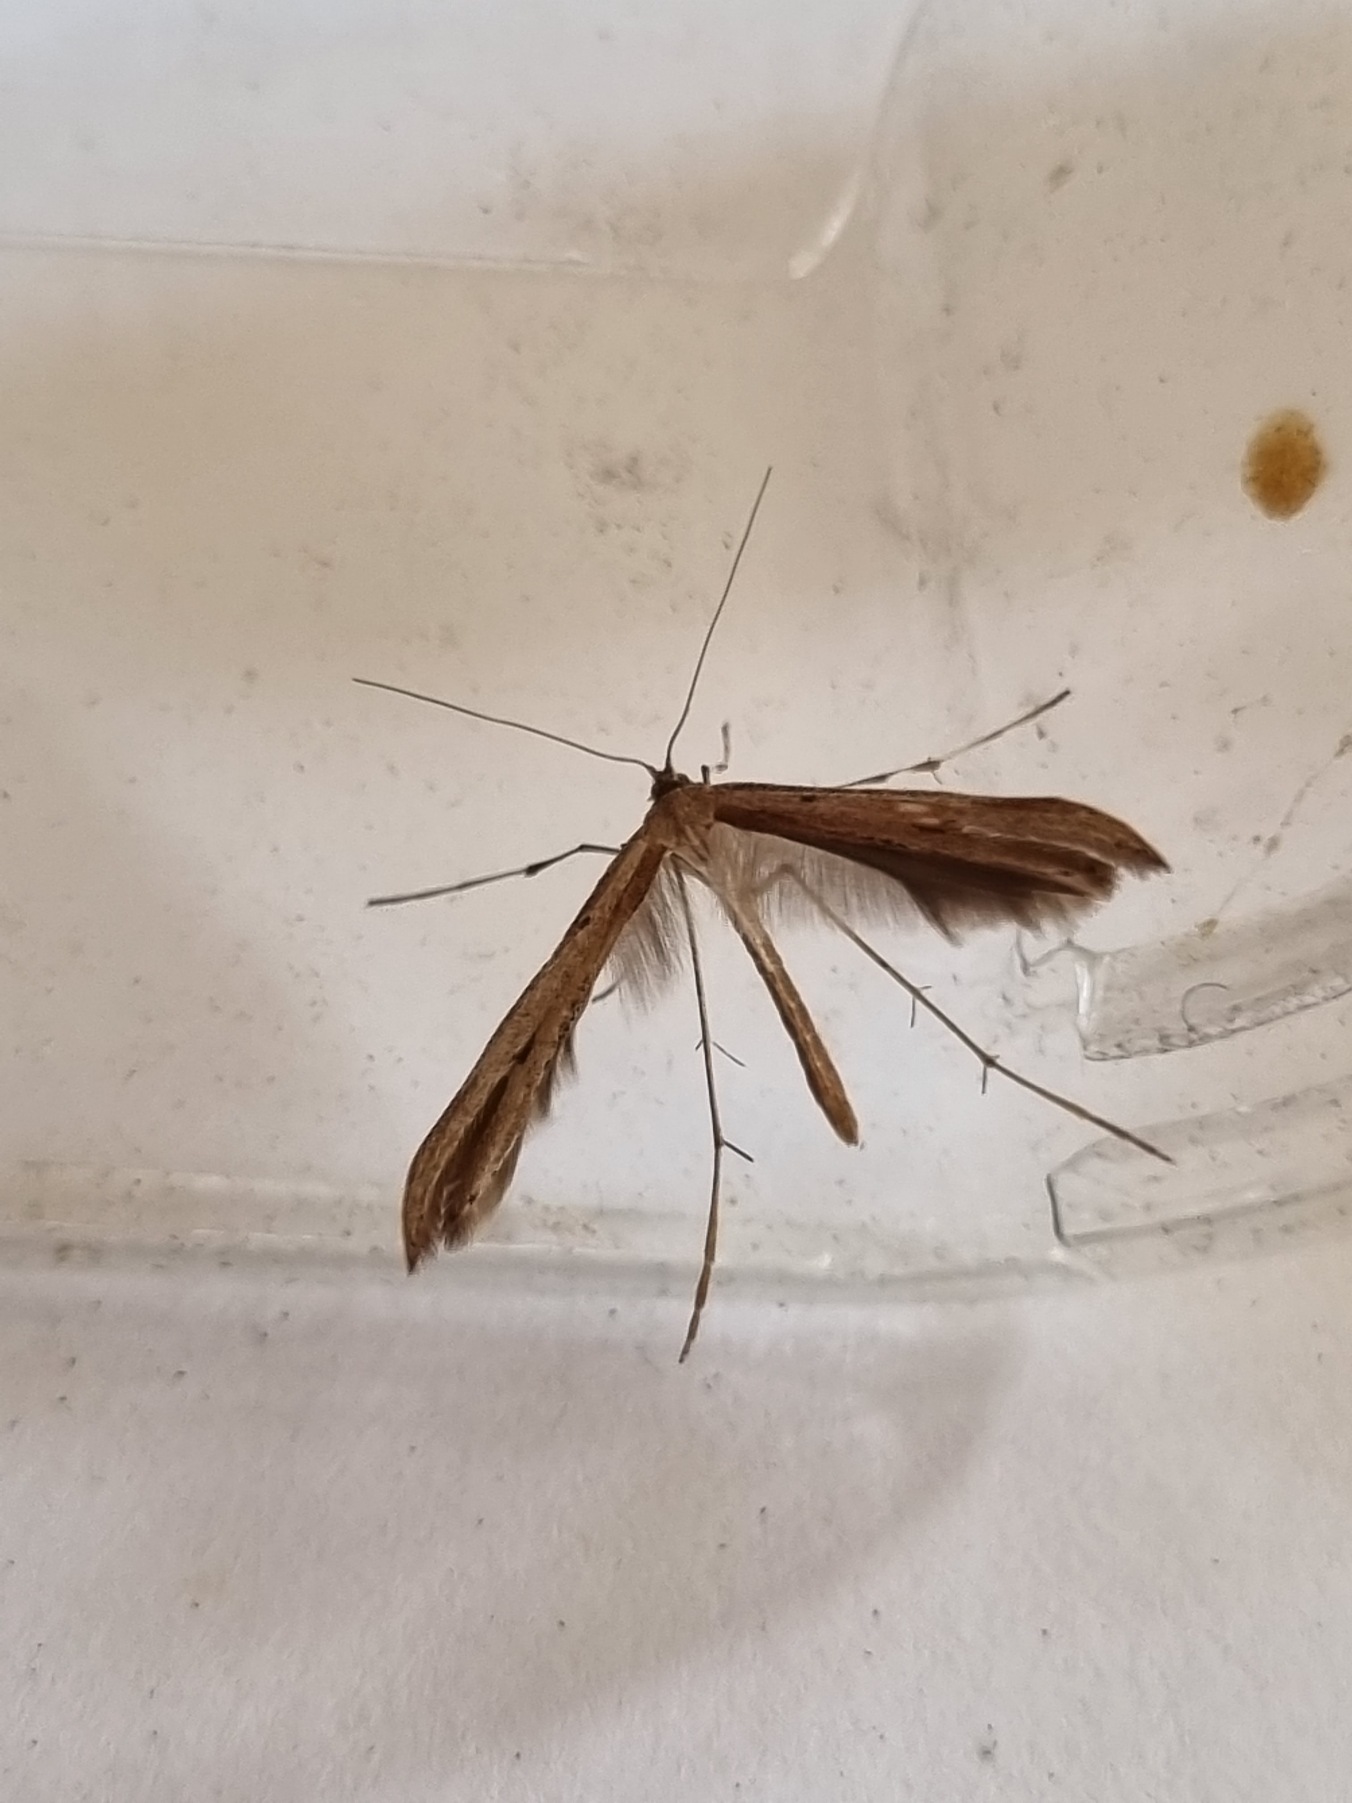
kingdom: Animalia
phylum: Arthropoda
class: Insecta
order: Lepidoptera
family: Pterophoridae
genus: Emmelina
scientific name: Emmelina monodactyla
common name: Snerlefjermøl
